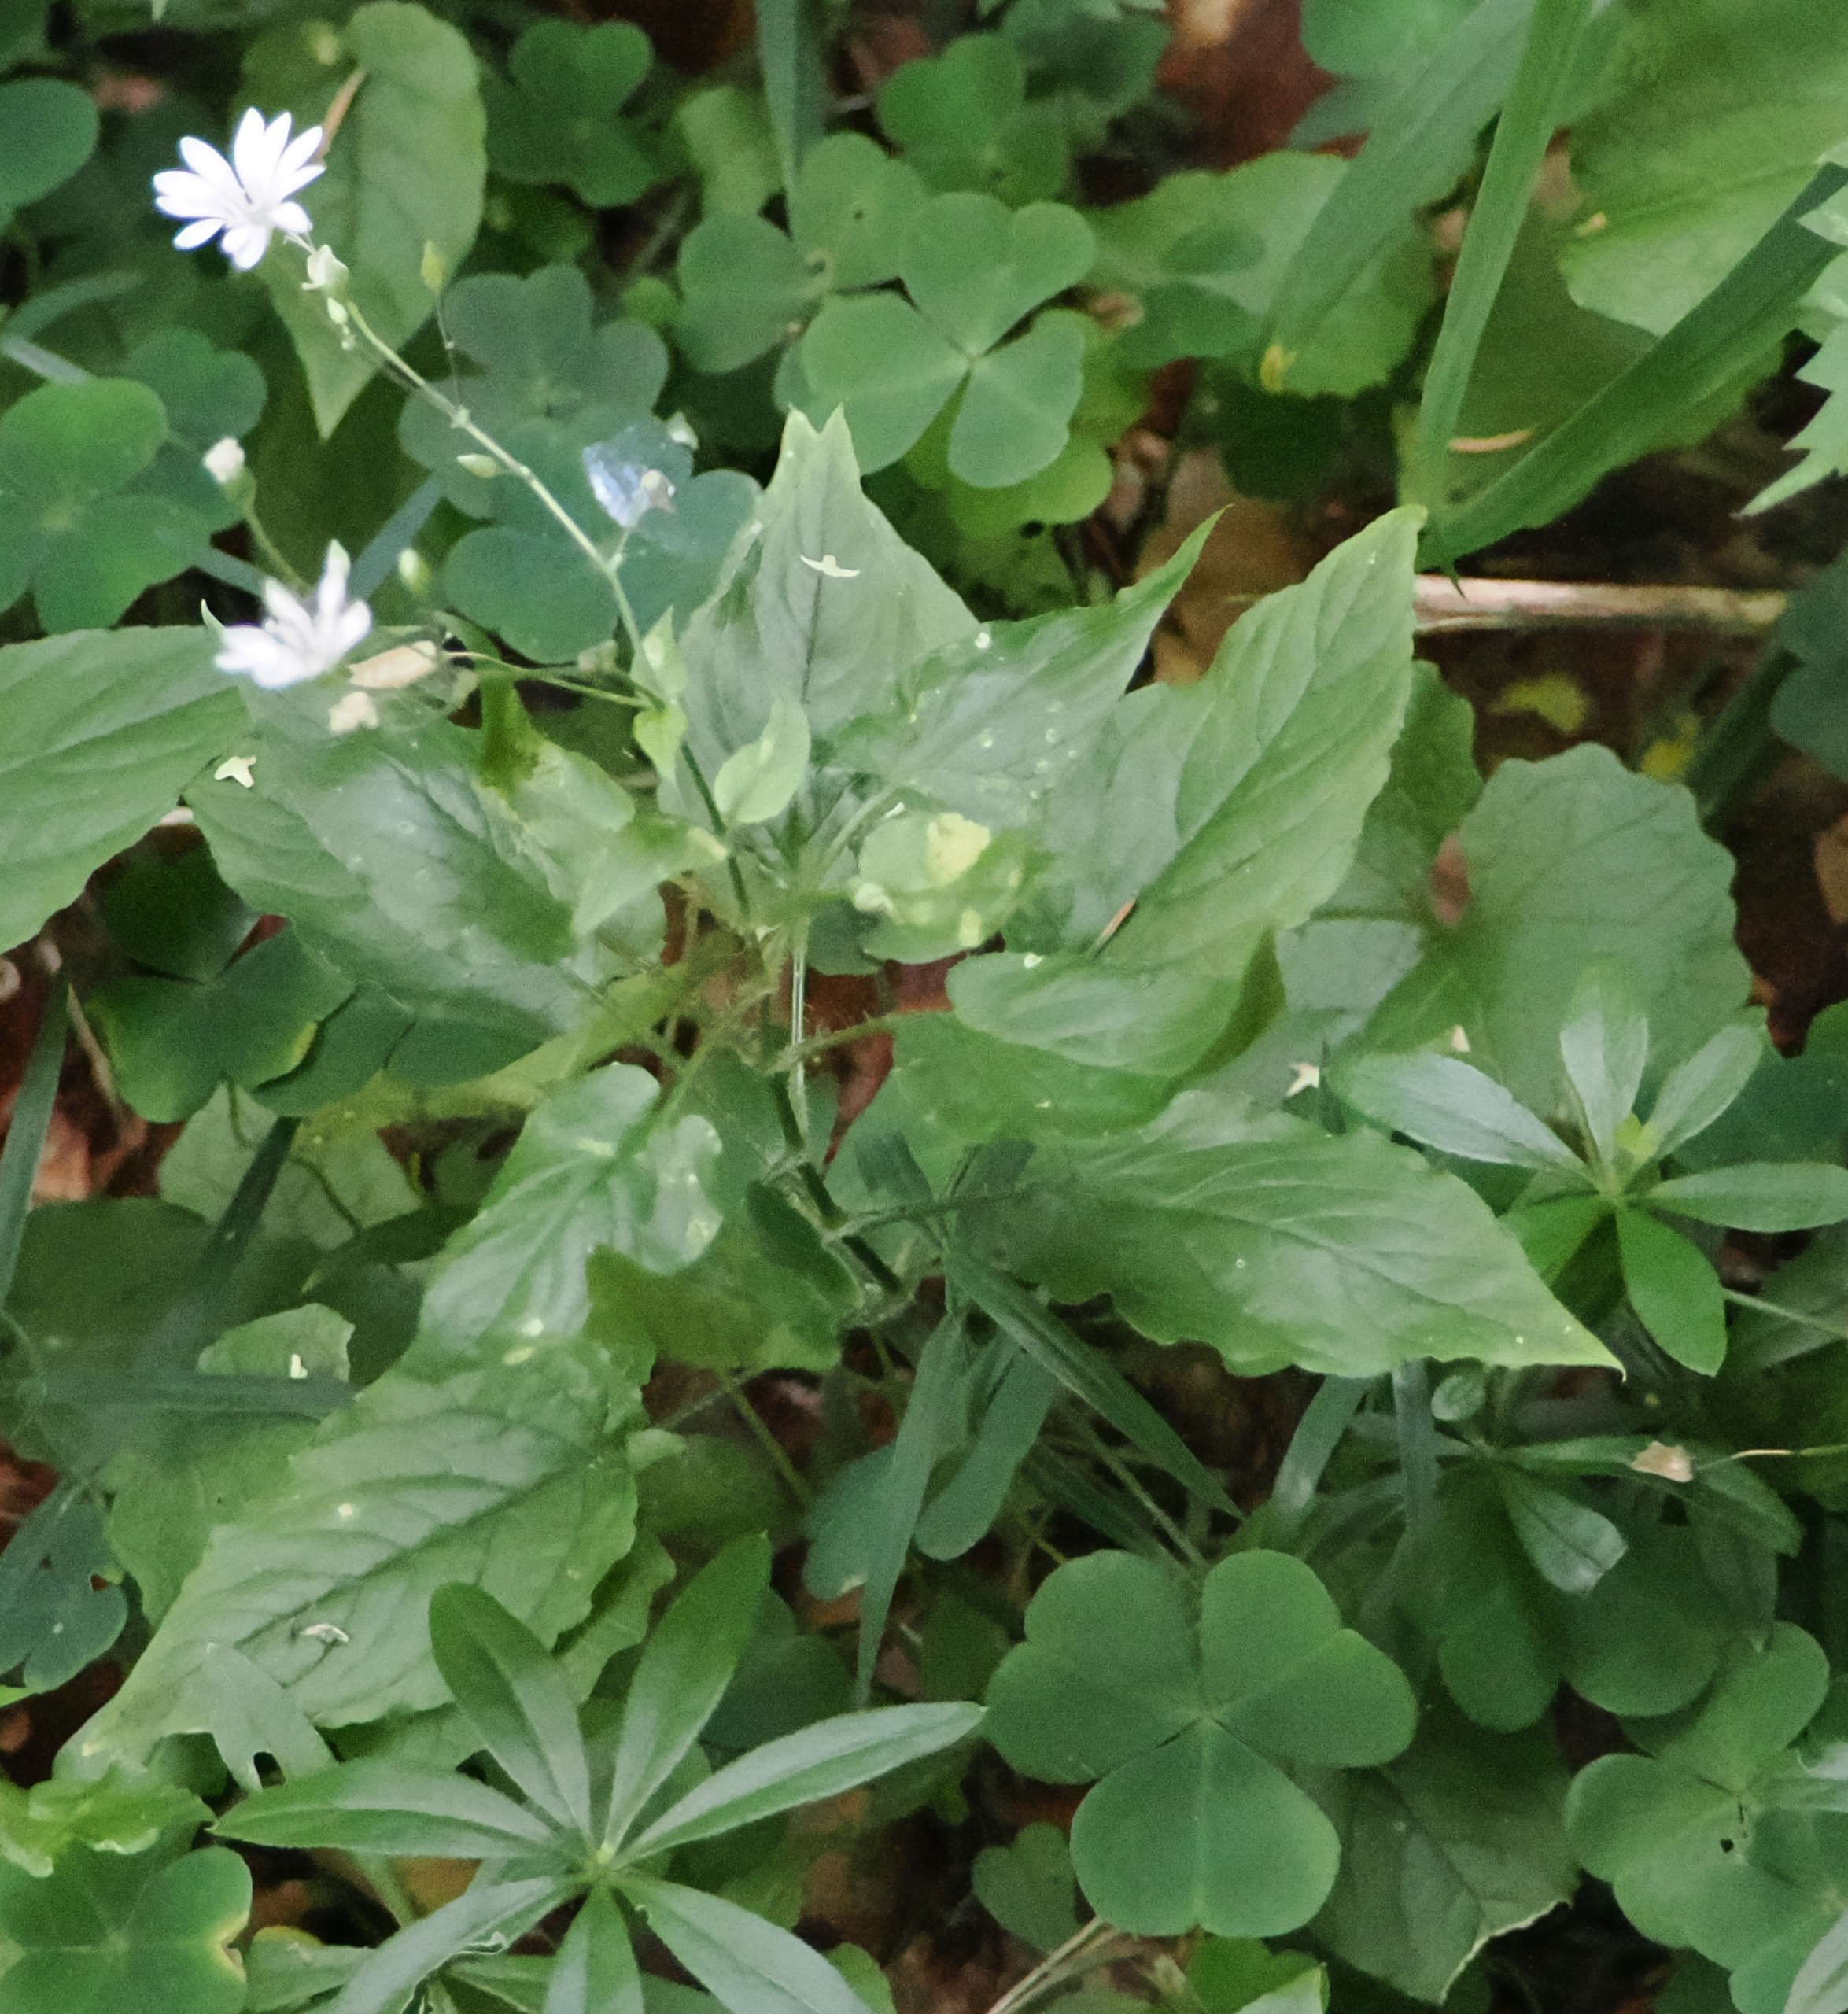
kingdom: Plantae
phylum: Tracheophyta
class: Magnoliopsida
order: Caryophyllales
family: Caryophyllaceae
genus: Stellaria
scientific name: Stellaria glochidisperma
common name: Sydlig lund-fladstjerne
